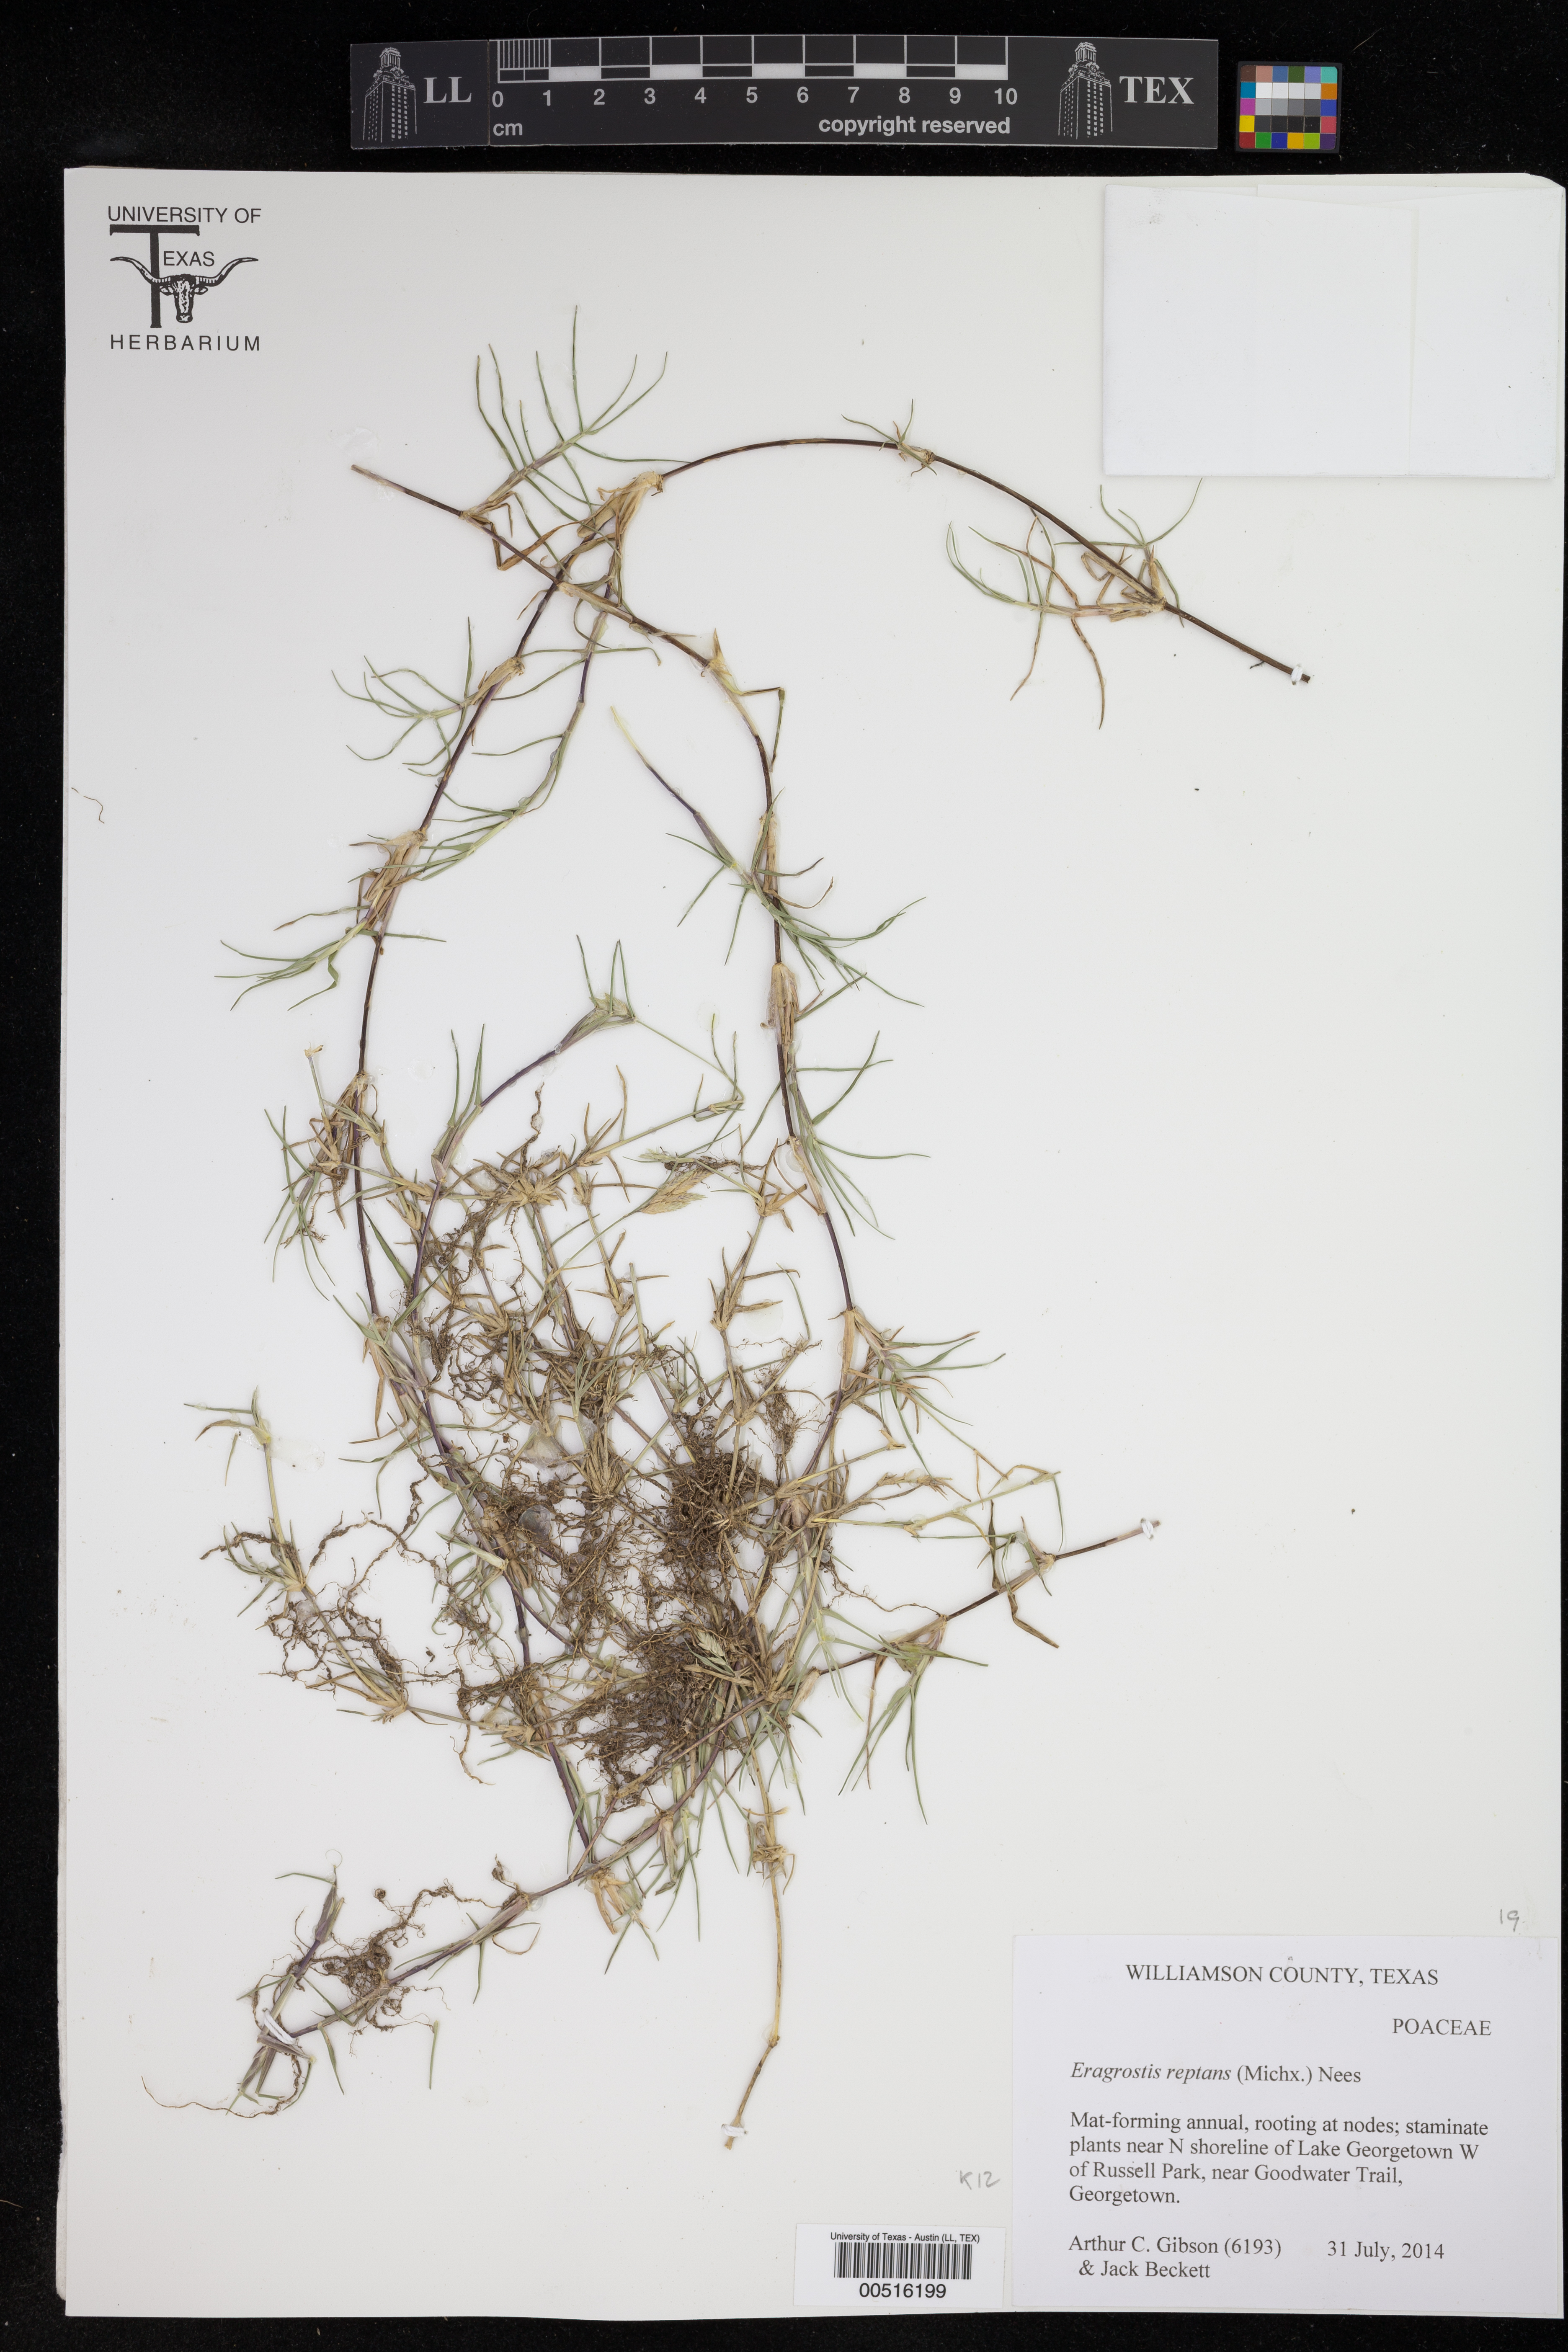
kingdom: Plantae
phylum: Tracheophyta
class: Liliopsida
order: Poales
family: Poaceae
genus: Eragrostis
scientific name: Eragrostis reptans
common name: Creeping love grass
